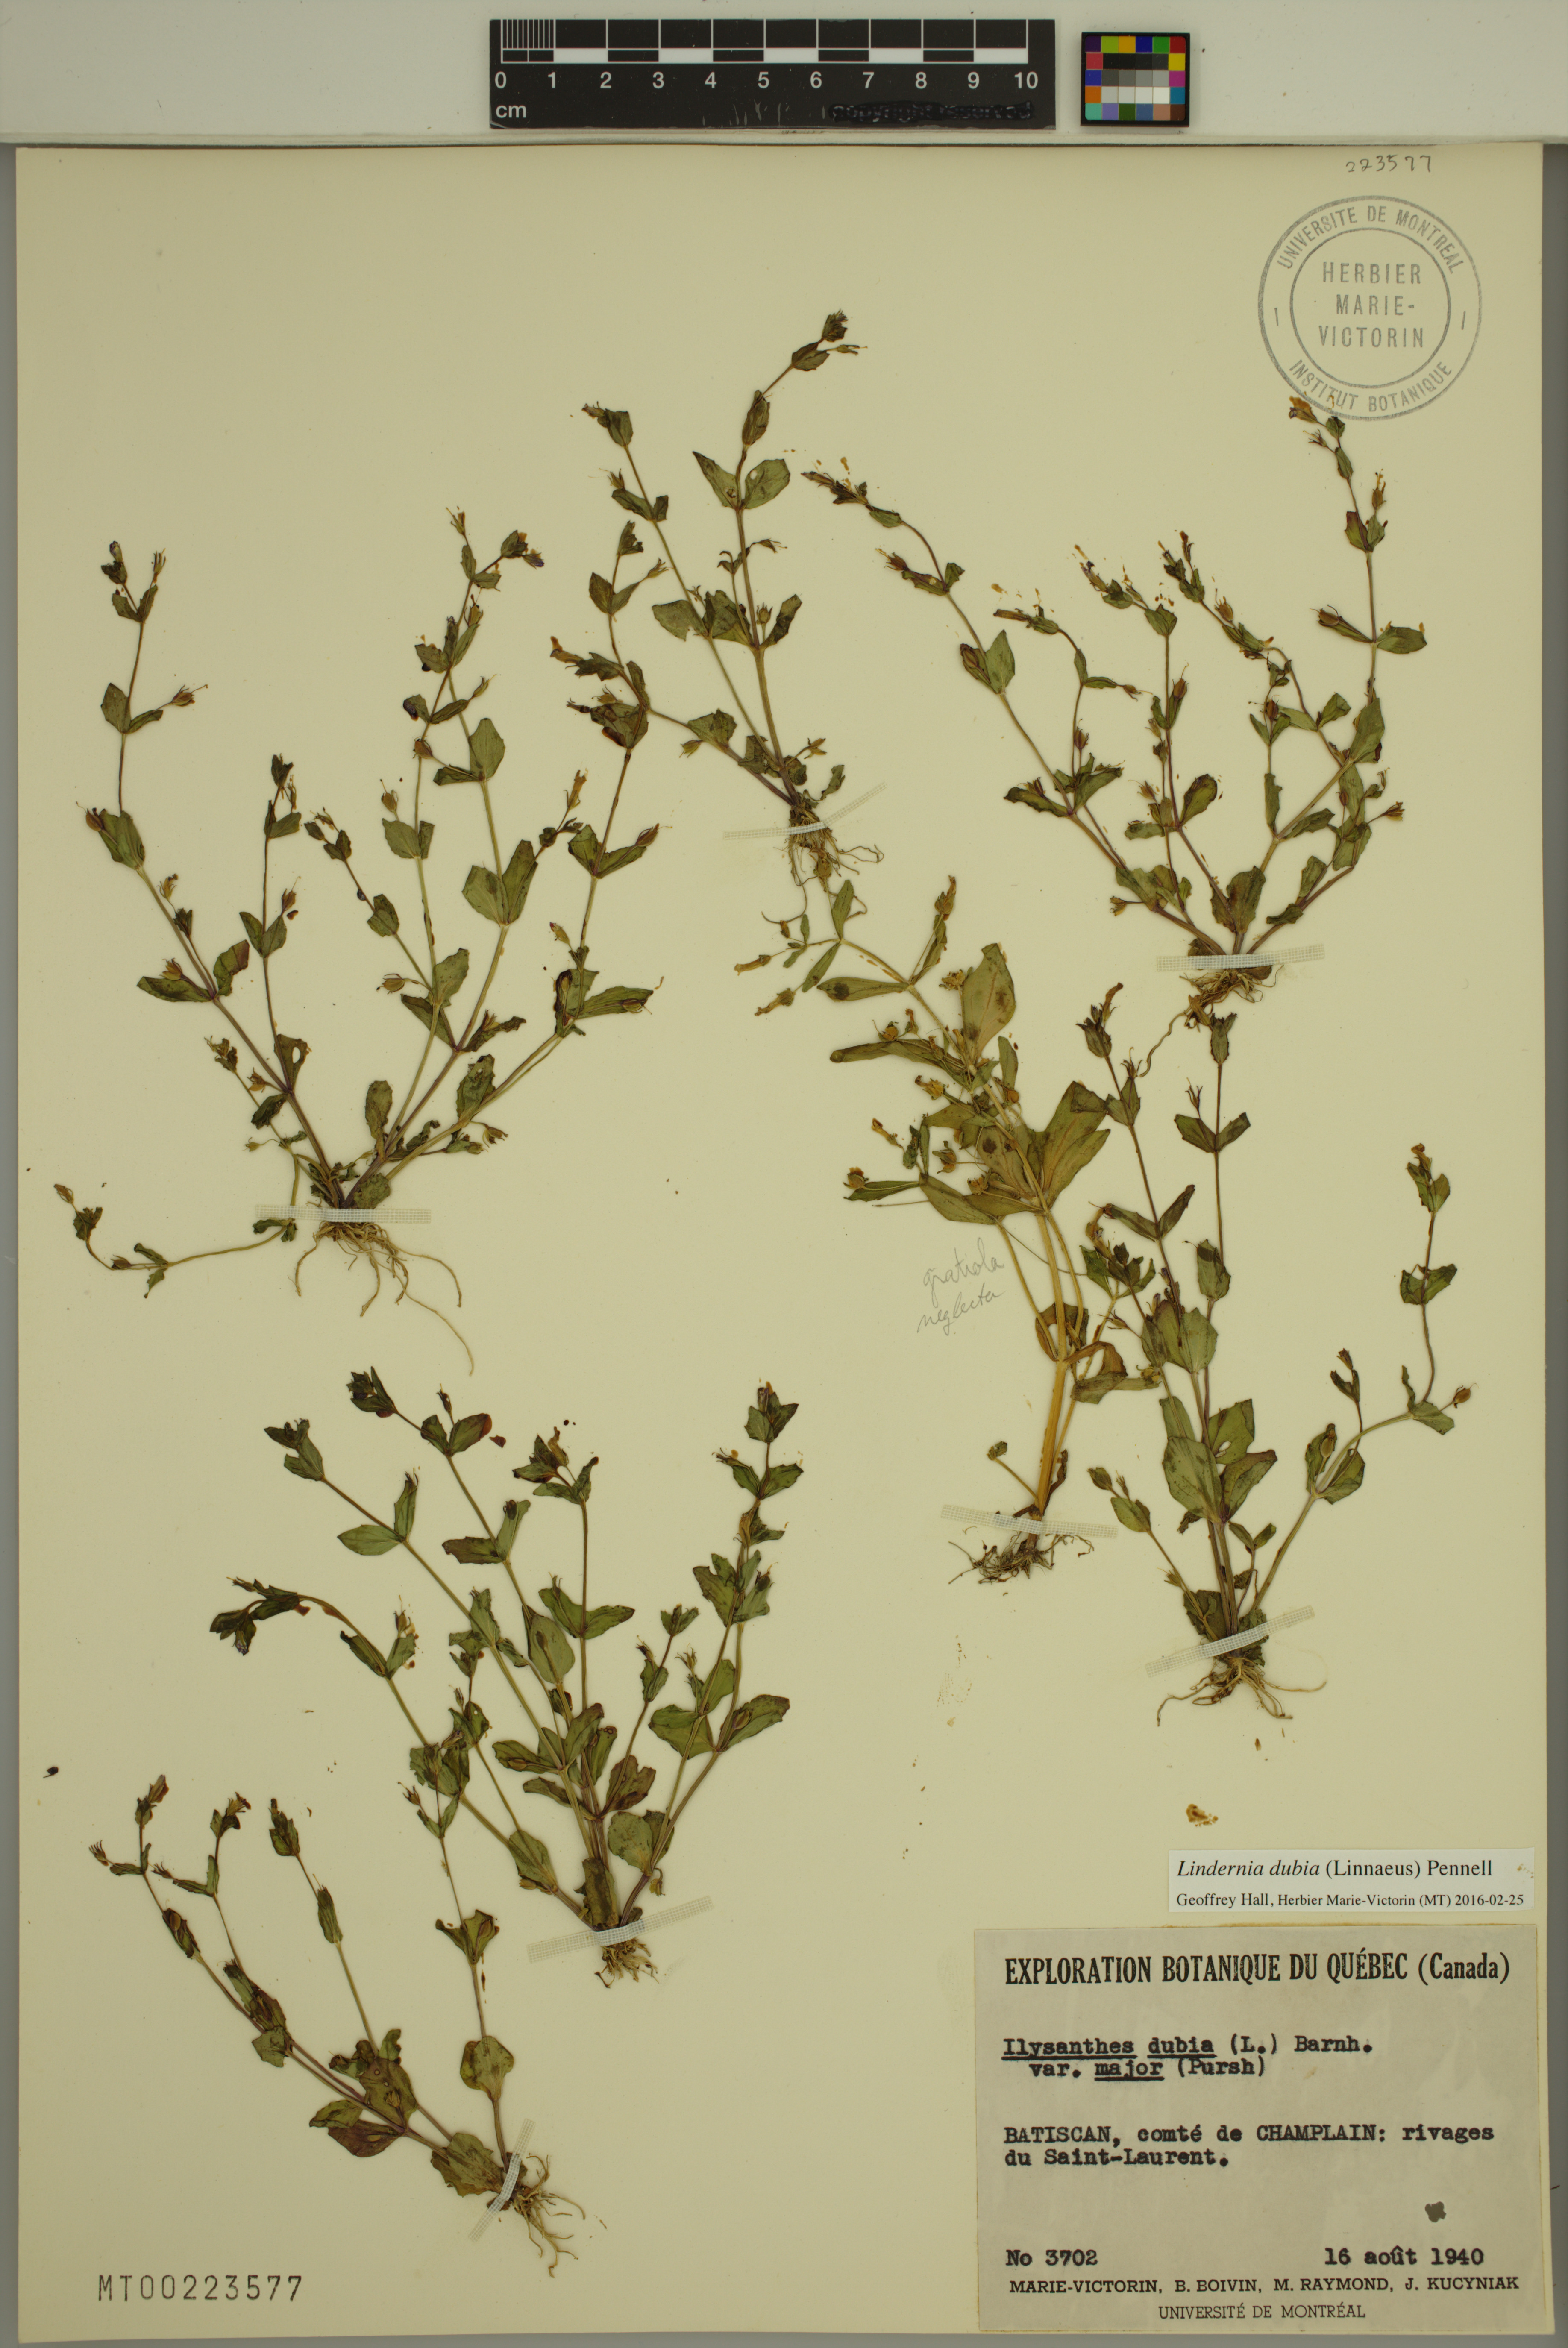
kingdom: Plantae
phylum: Tracheophyta
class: Magnoliopsida
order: Lamiales
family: Linderniaceae
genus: Lindernia
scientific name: Lindernia dubia
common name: Annual false pimpernel
